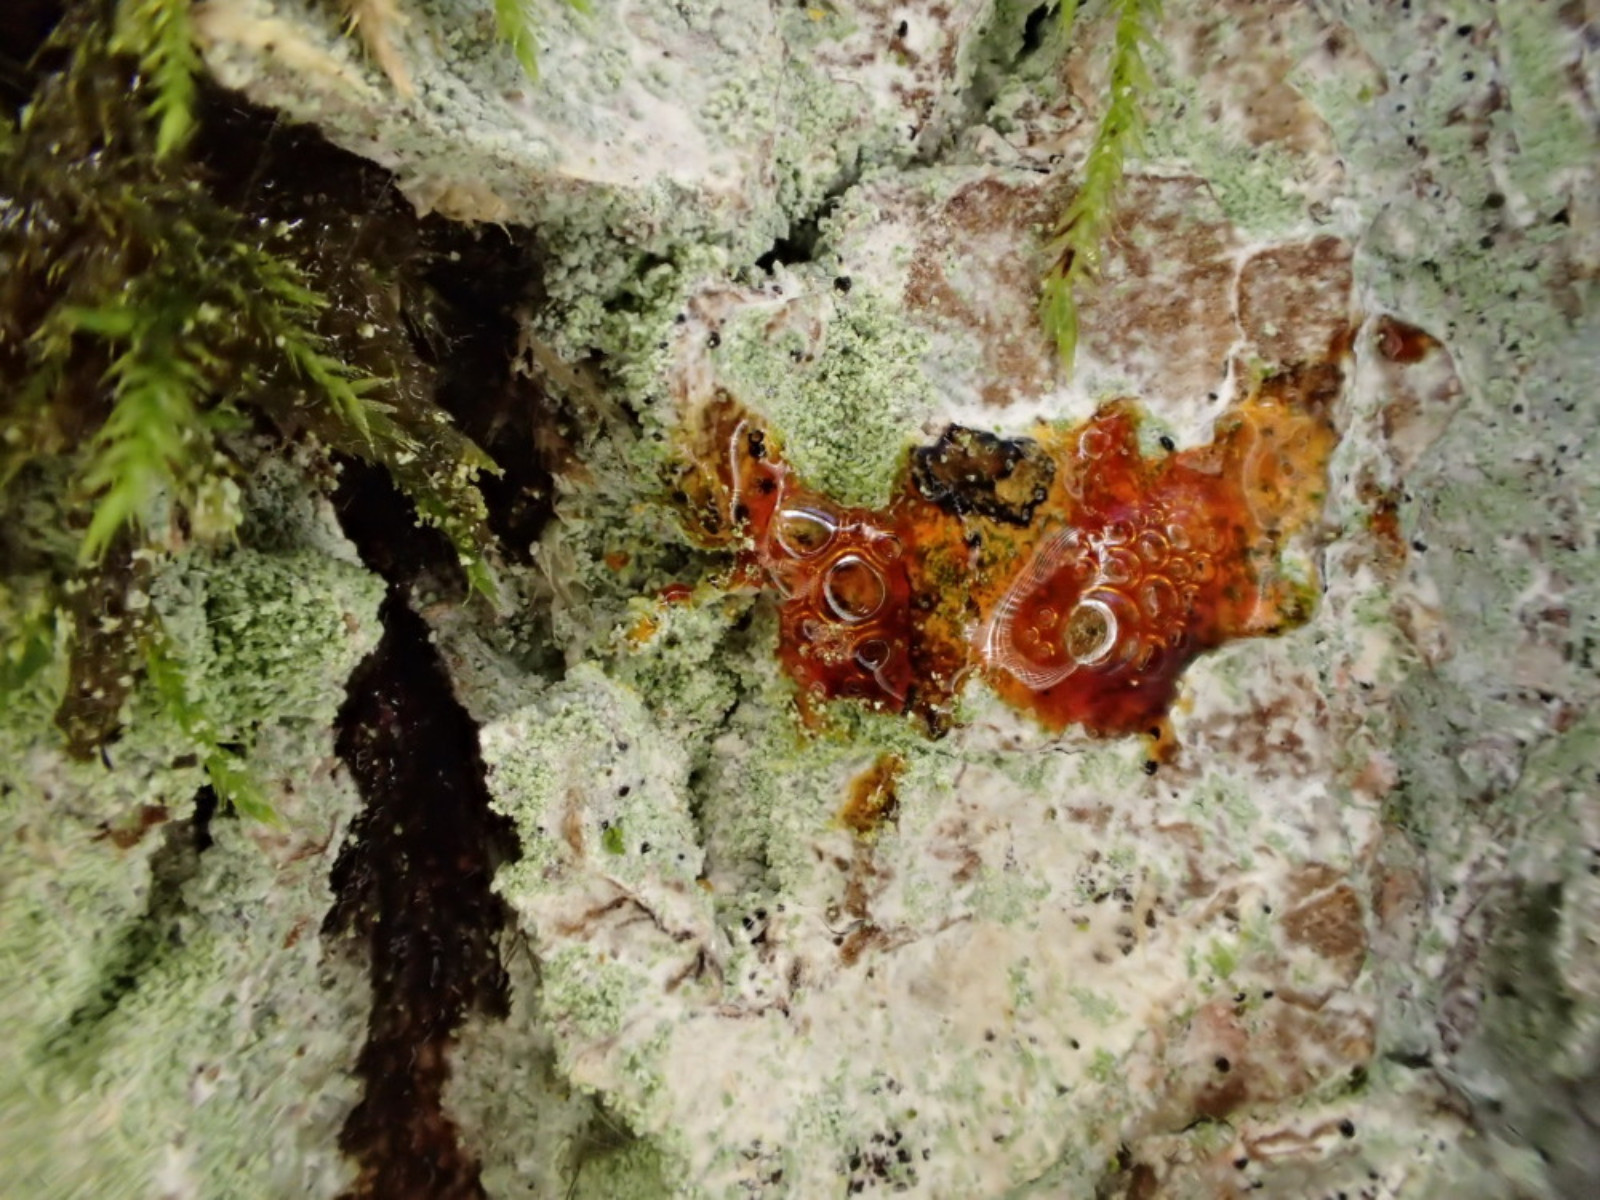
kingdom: Fungi
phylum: Ascomycota
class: Lecanoromycetes
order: Ostropales
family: Phlyctidaceae
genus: Phlyctis
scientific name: Phlyctis argena
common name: almindelig sølvlav
